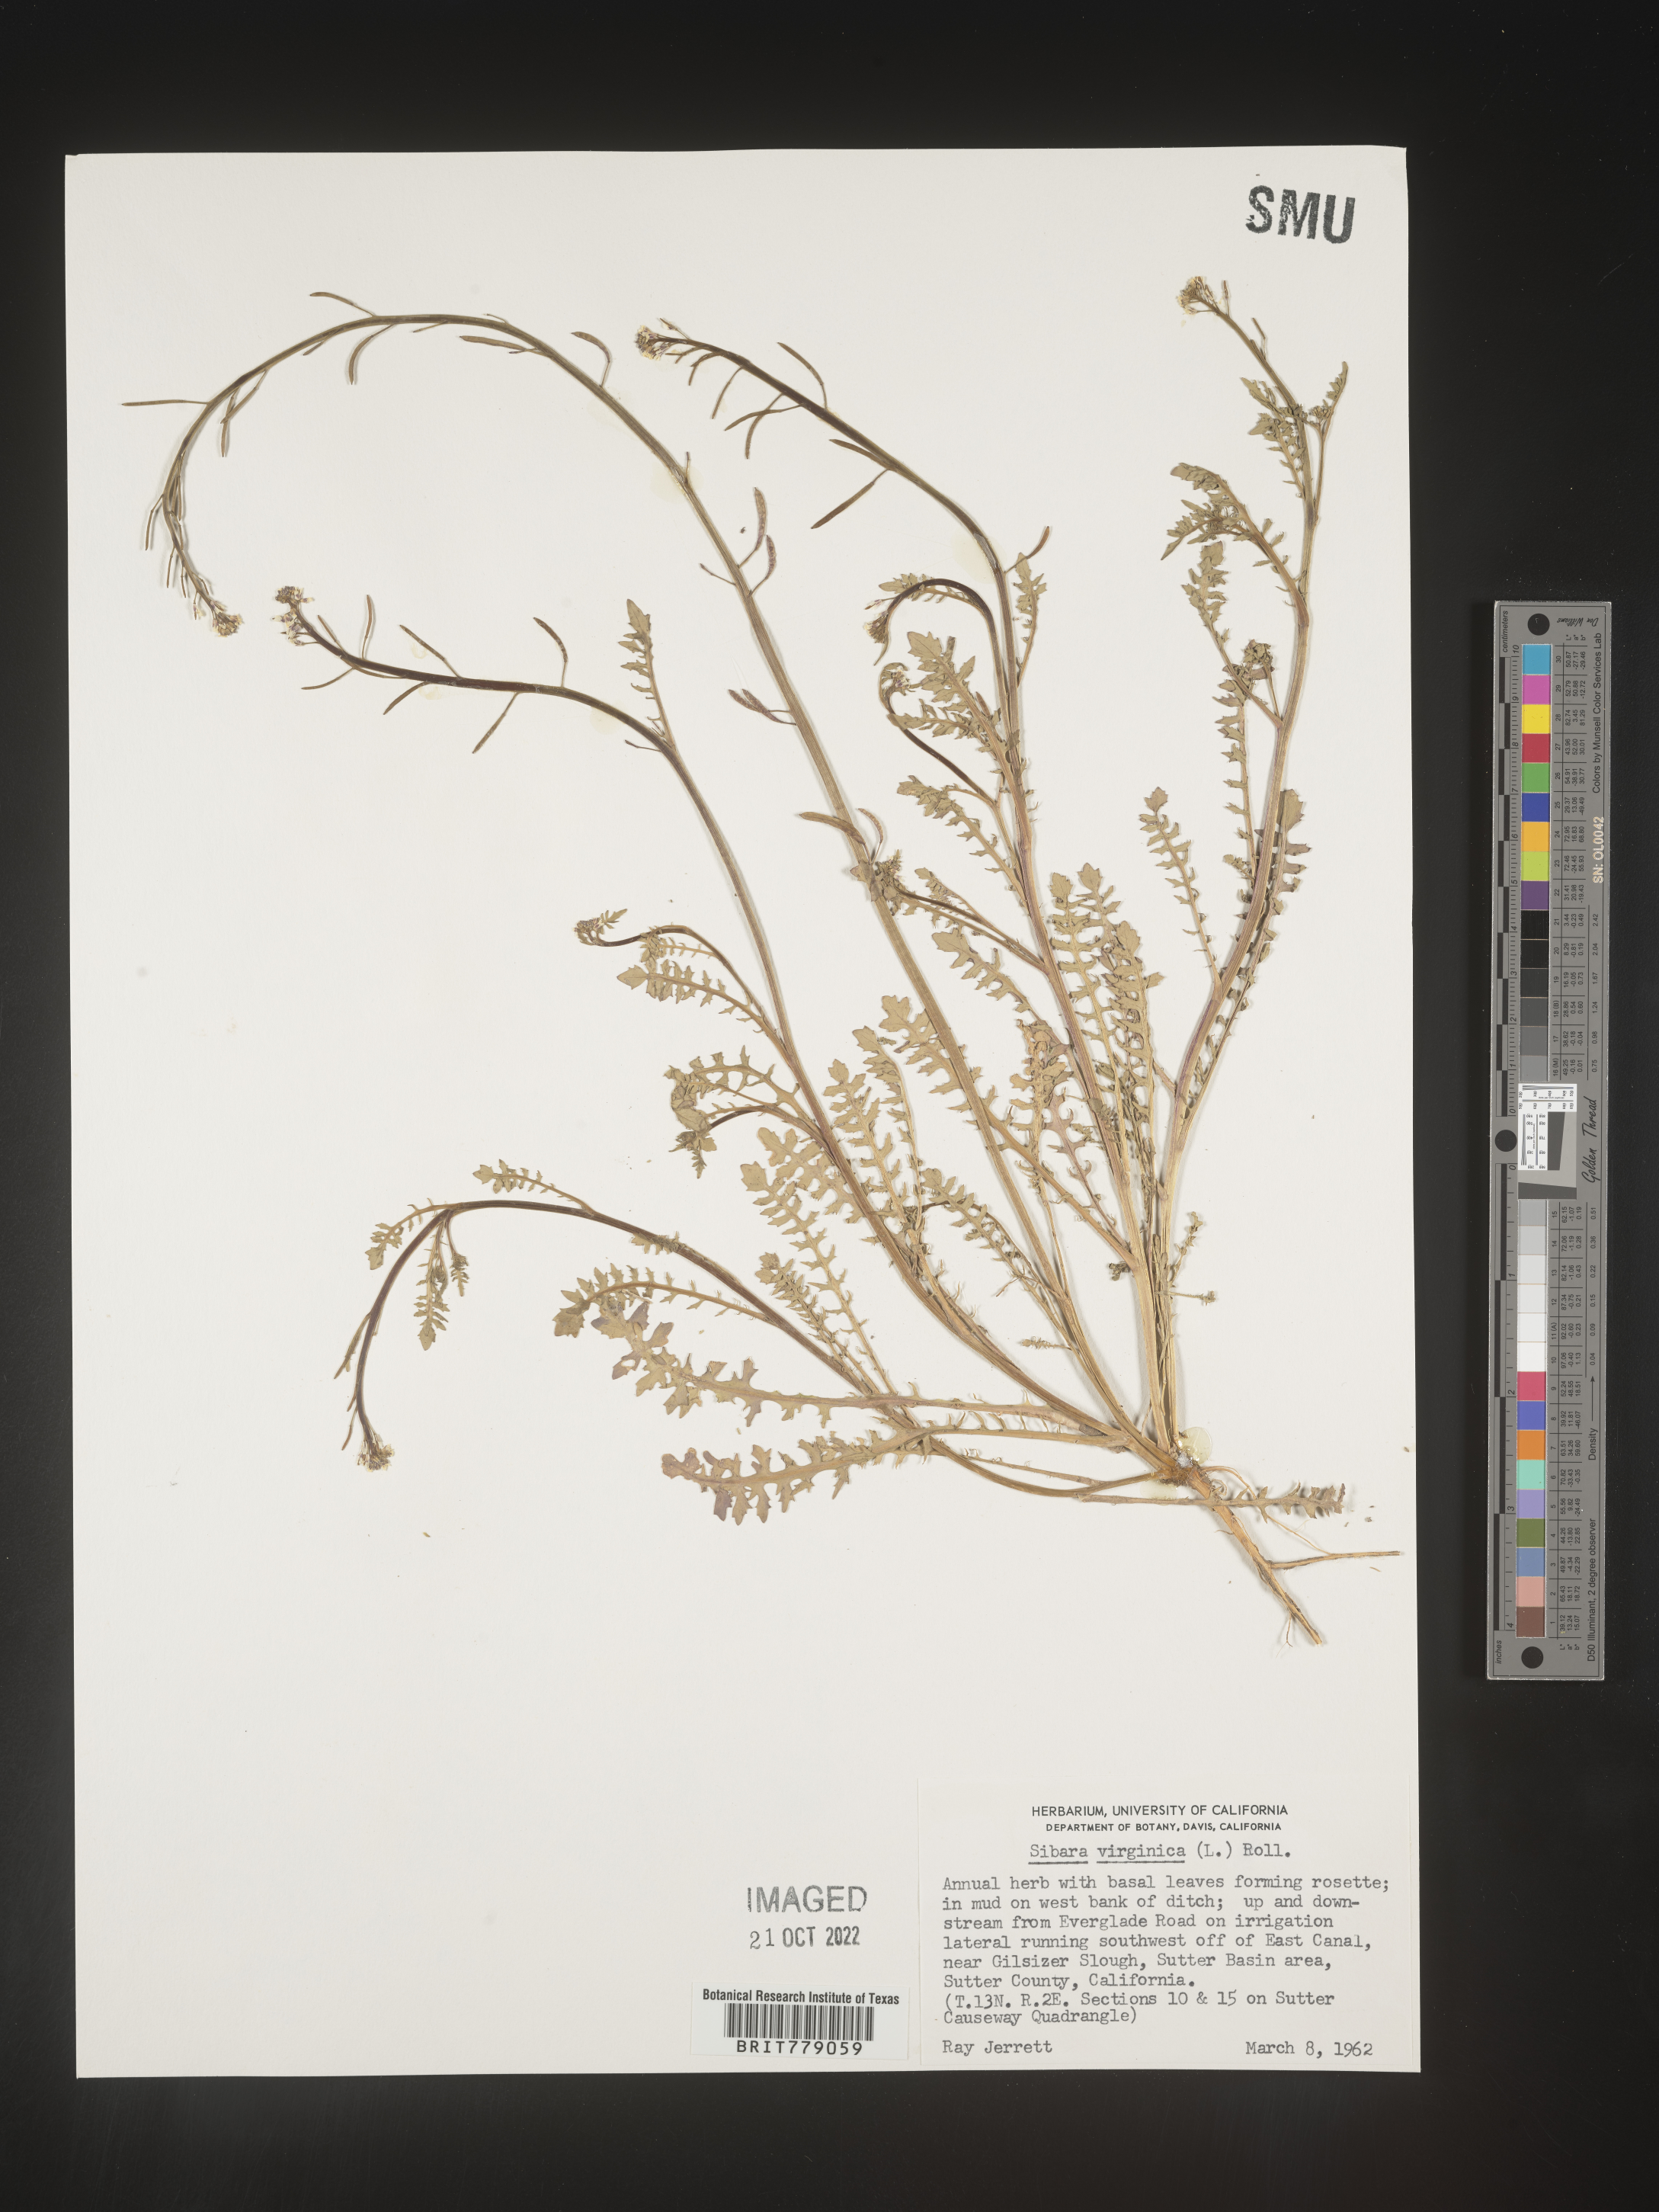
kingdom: Plantae
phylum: Tracheophyta
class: Magnoliopsida
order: Brassicales
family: Brassicaceae
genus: Sibara
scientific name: Sibara
